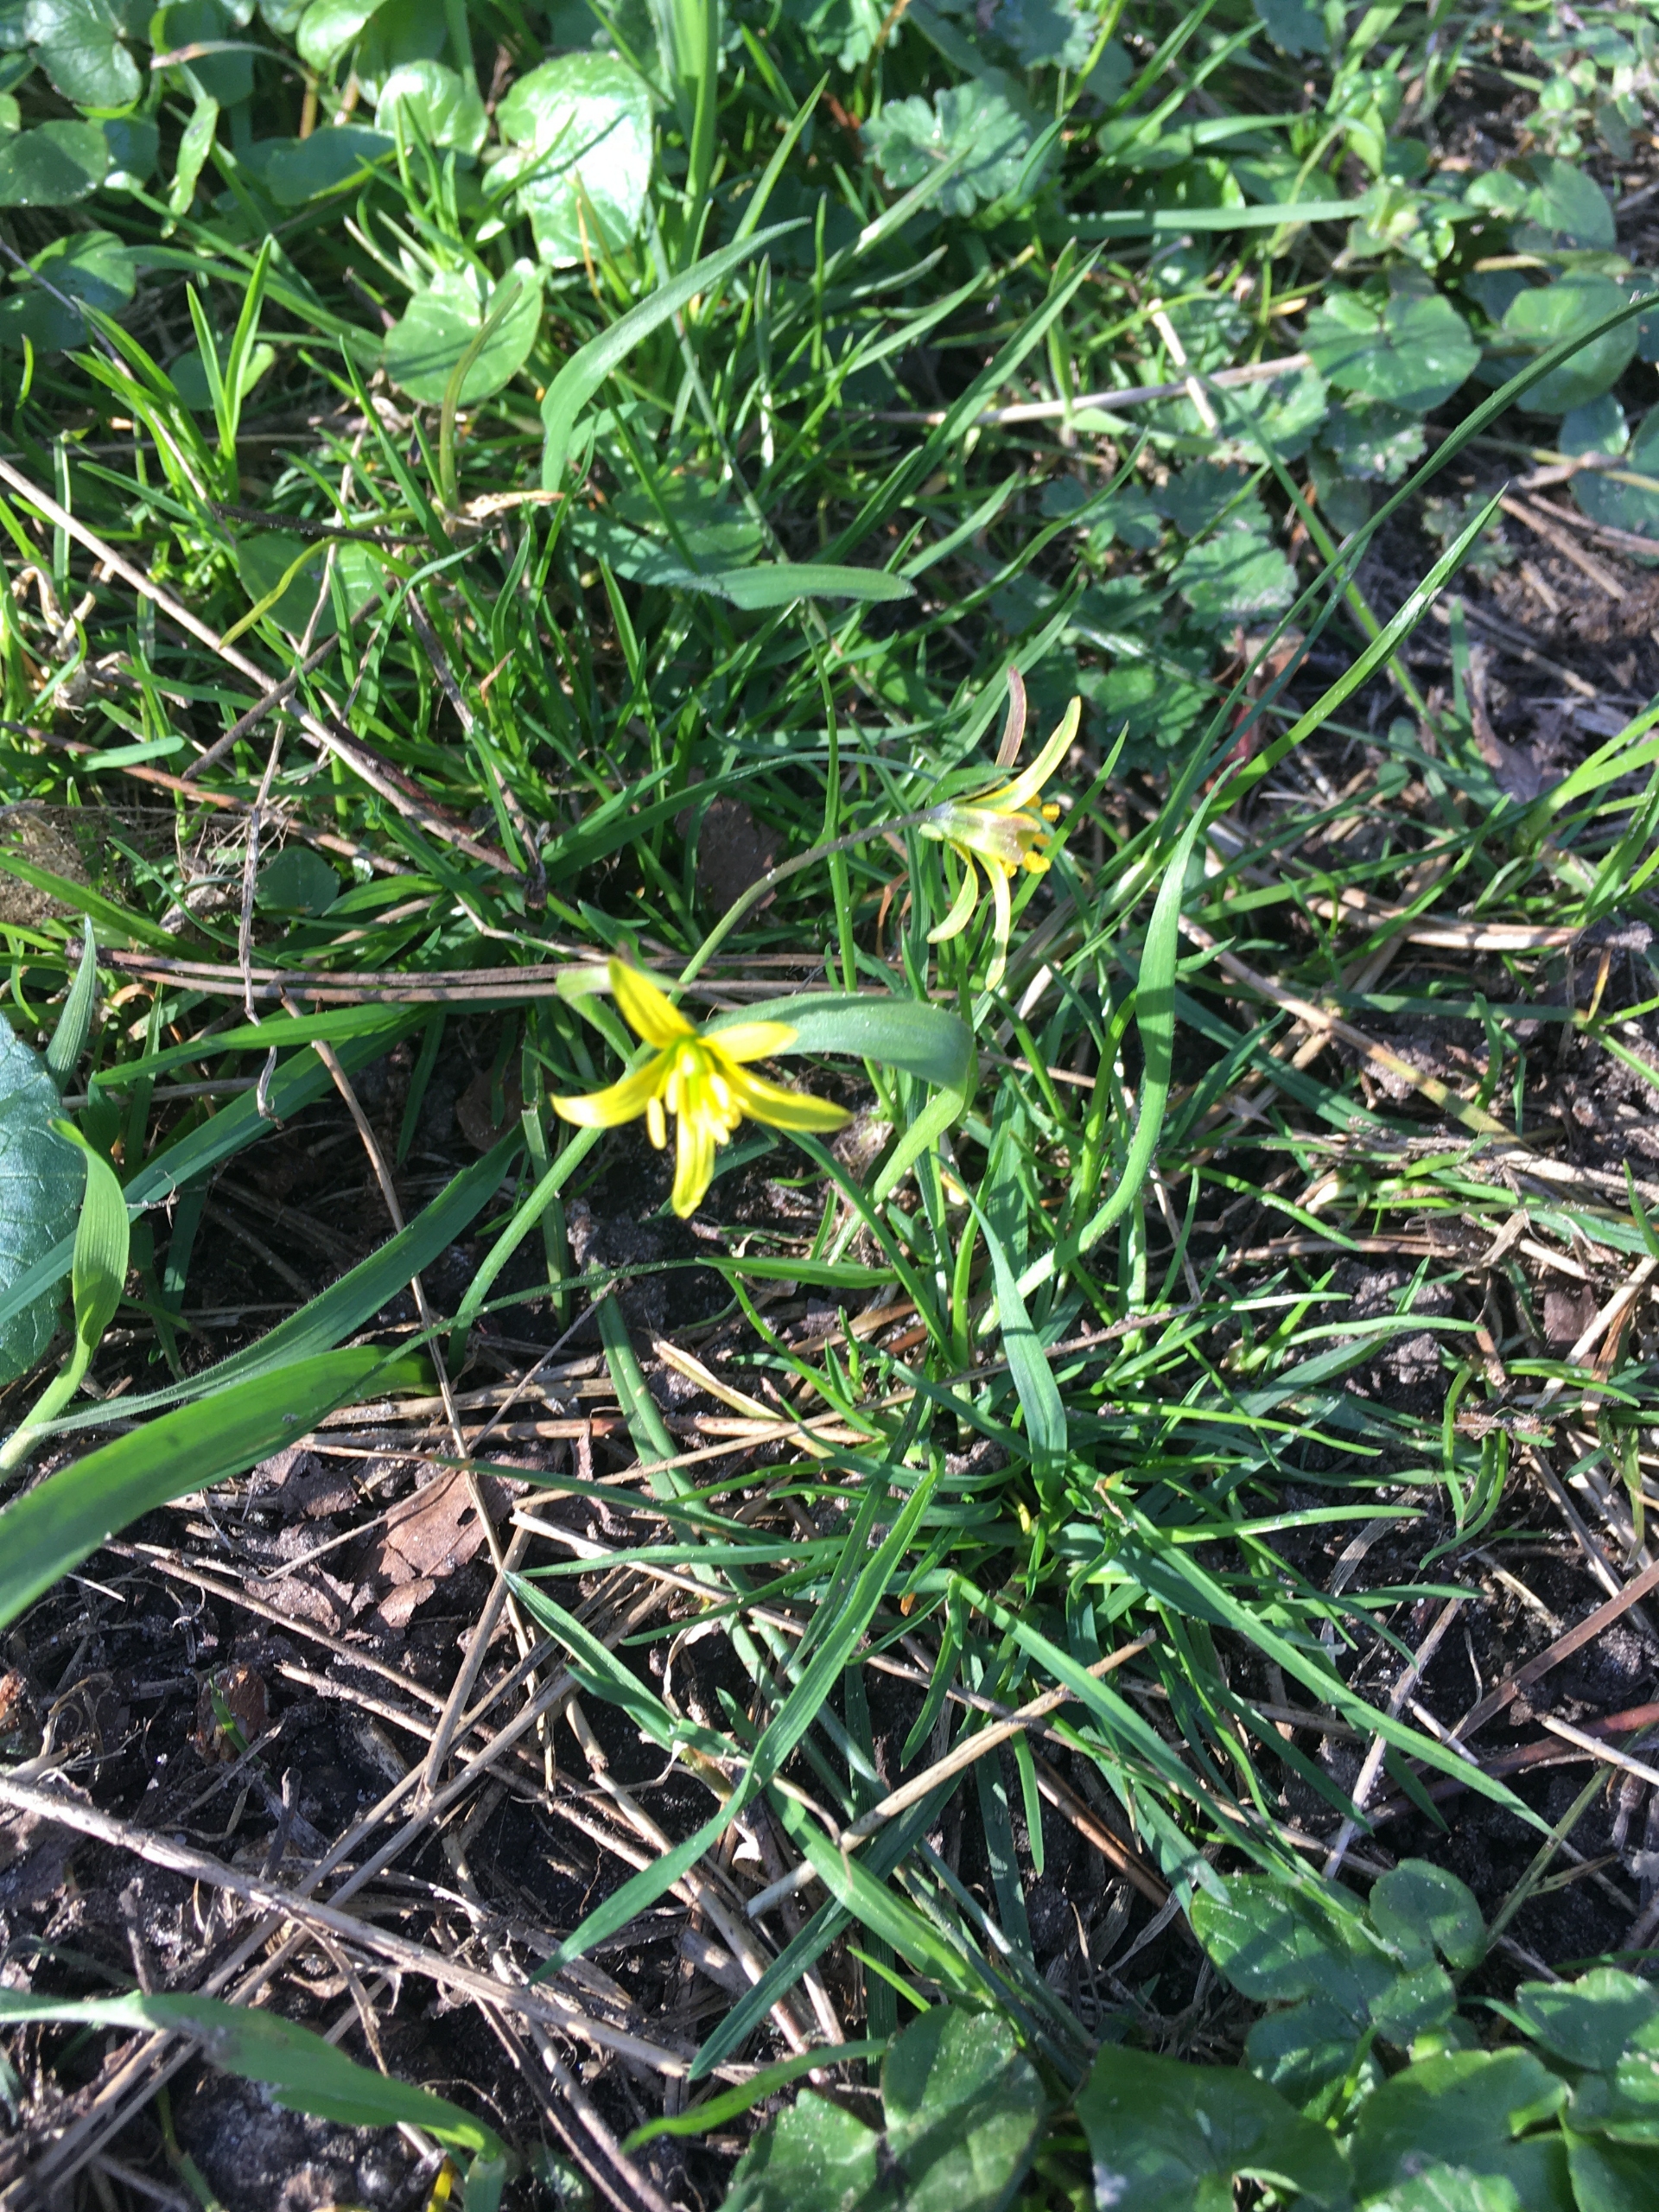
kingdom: Plantae
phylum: Tracheophyta
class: Liliopsida
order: Liliales
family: Liliaceae
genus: Gagea
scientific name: Gagea lutea
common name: Almindelig guldstjerne
